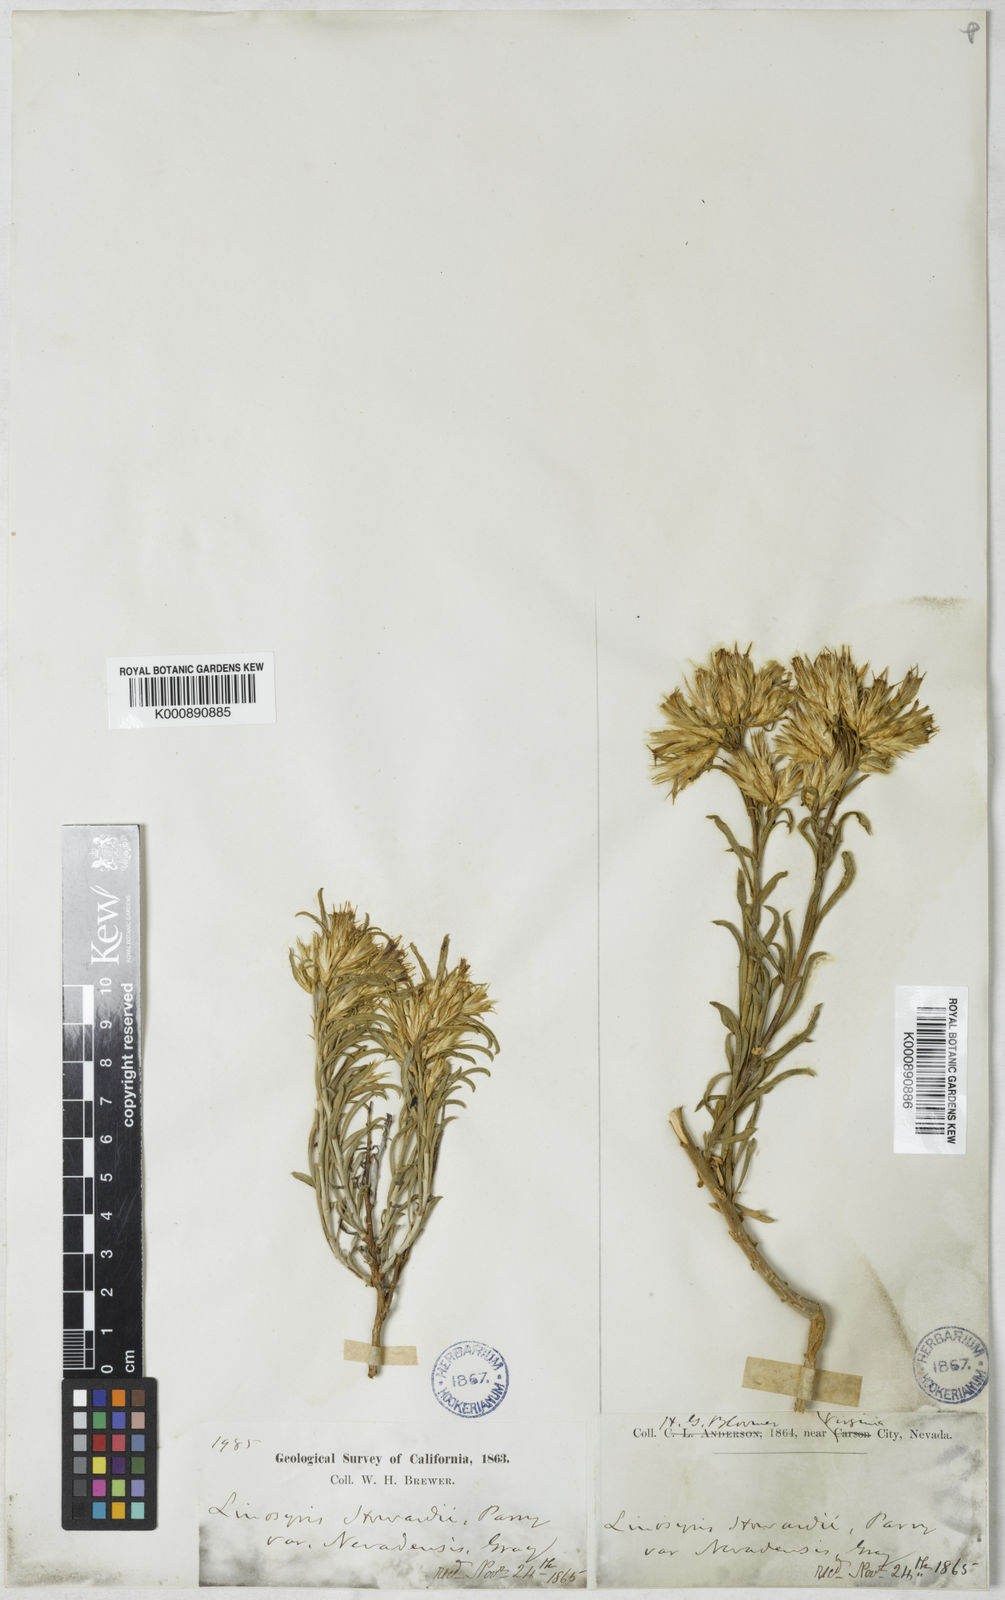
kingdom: Plantae
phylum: Tracheophyta
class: Magnoliopsida
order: Asterales
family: Asteraceae
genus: Ericameria
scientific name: Ericameria parryi
